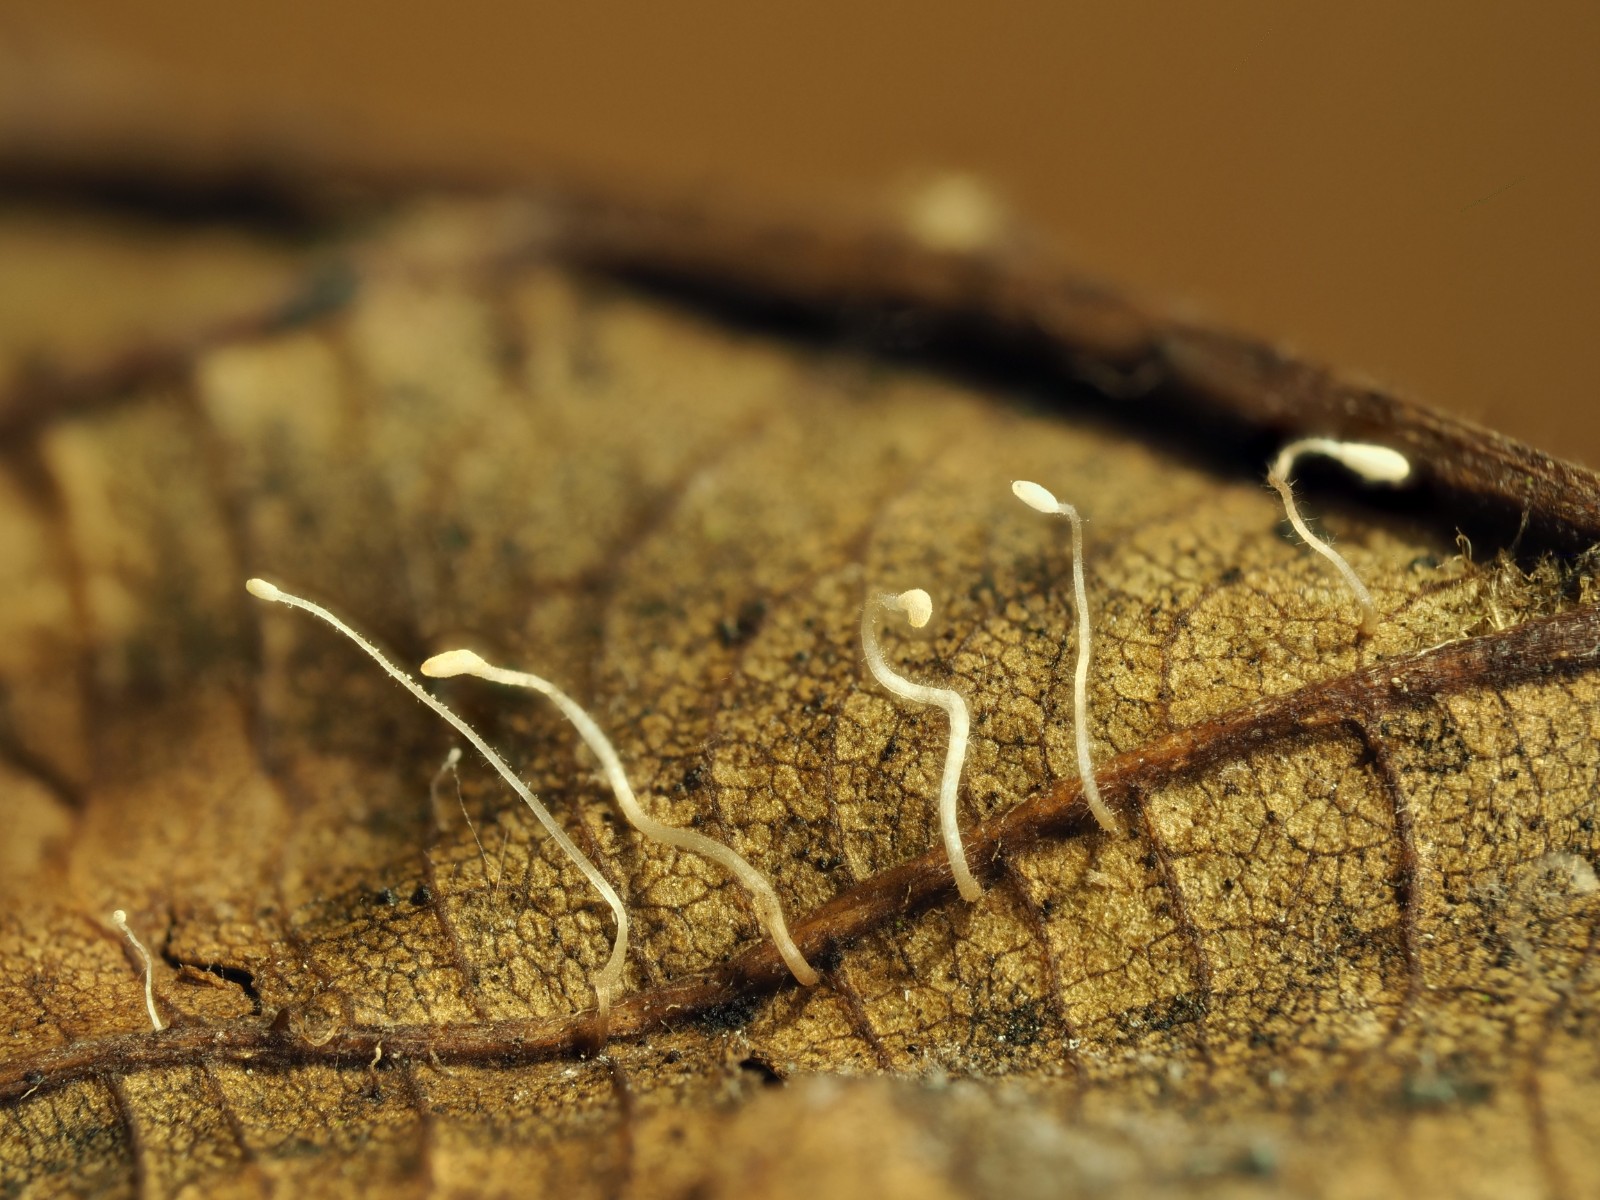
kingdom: Fungi
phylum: Basidiomycota
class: Agaricomycetes
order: Agaricales
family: Typhulaceae
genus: Typhula
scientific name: Typhula setipes
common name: liden trådkølle
